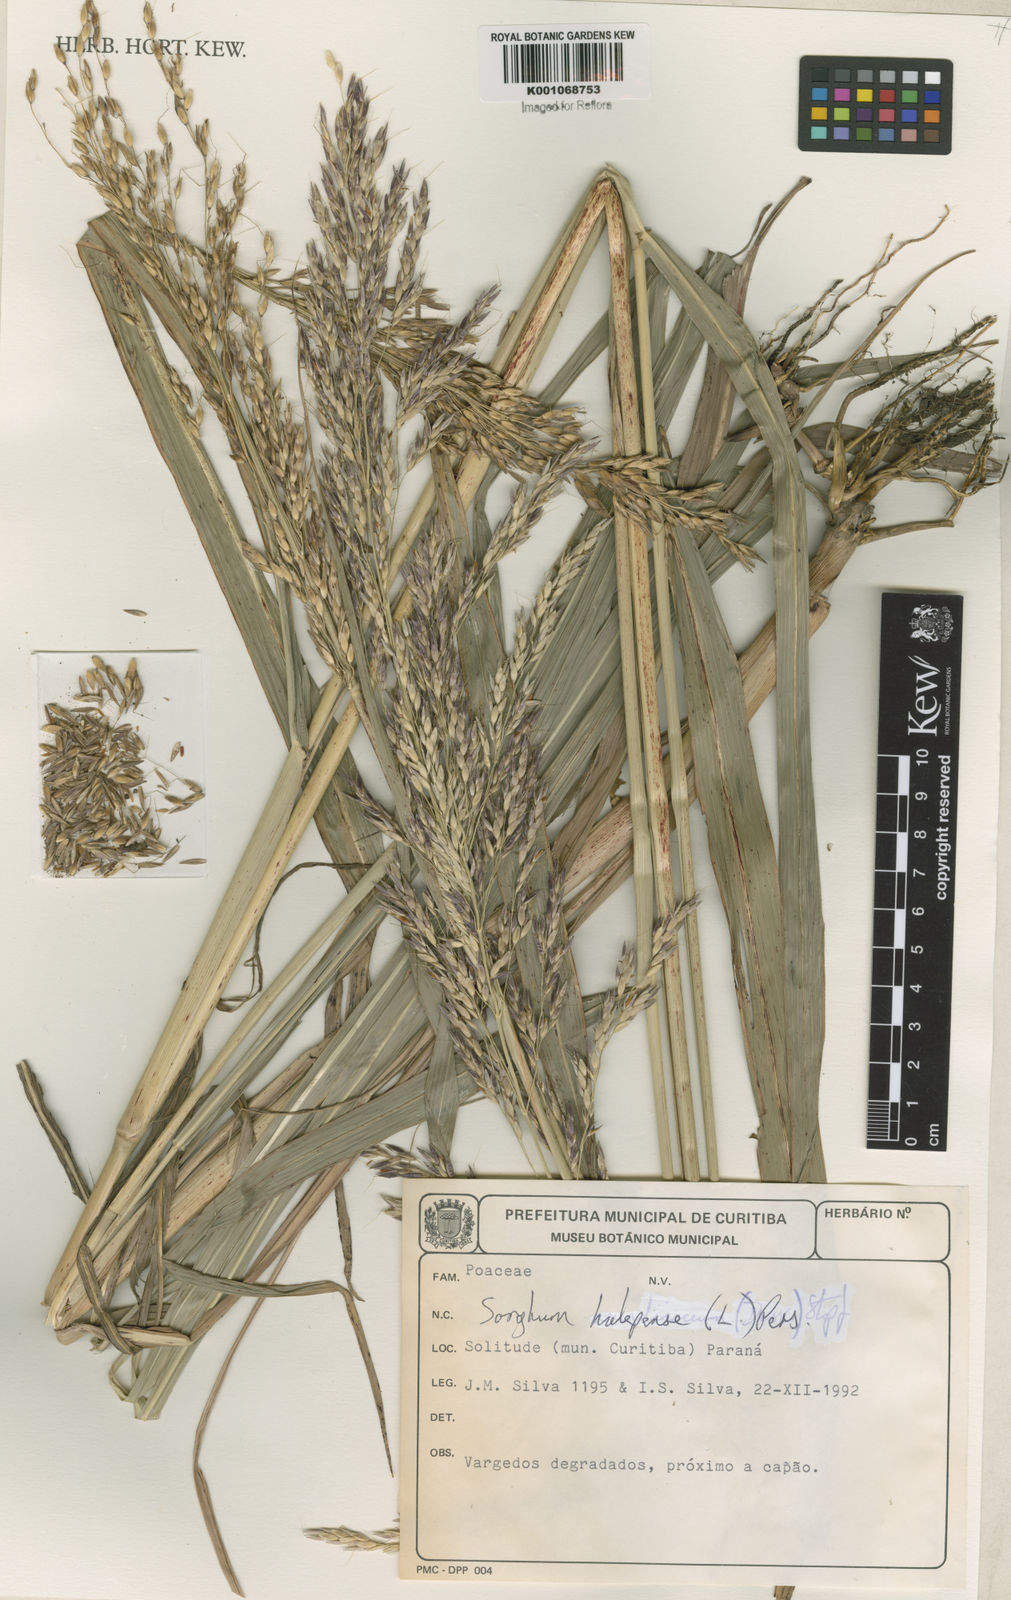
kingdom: Plantae
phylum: Tracheophyta
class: Liliopsida
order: Poales
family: Poaceae
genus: Sorghum
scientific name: Sorghum halepense
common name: Johnson-grass
